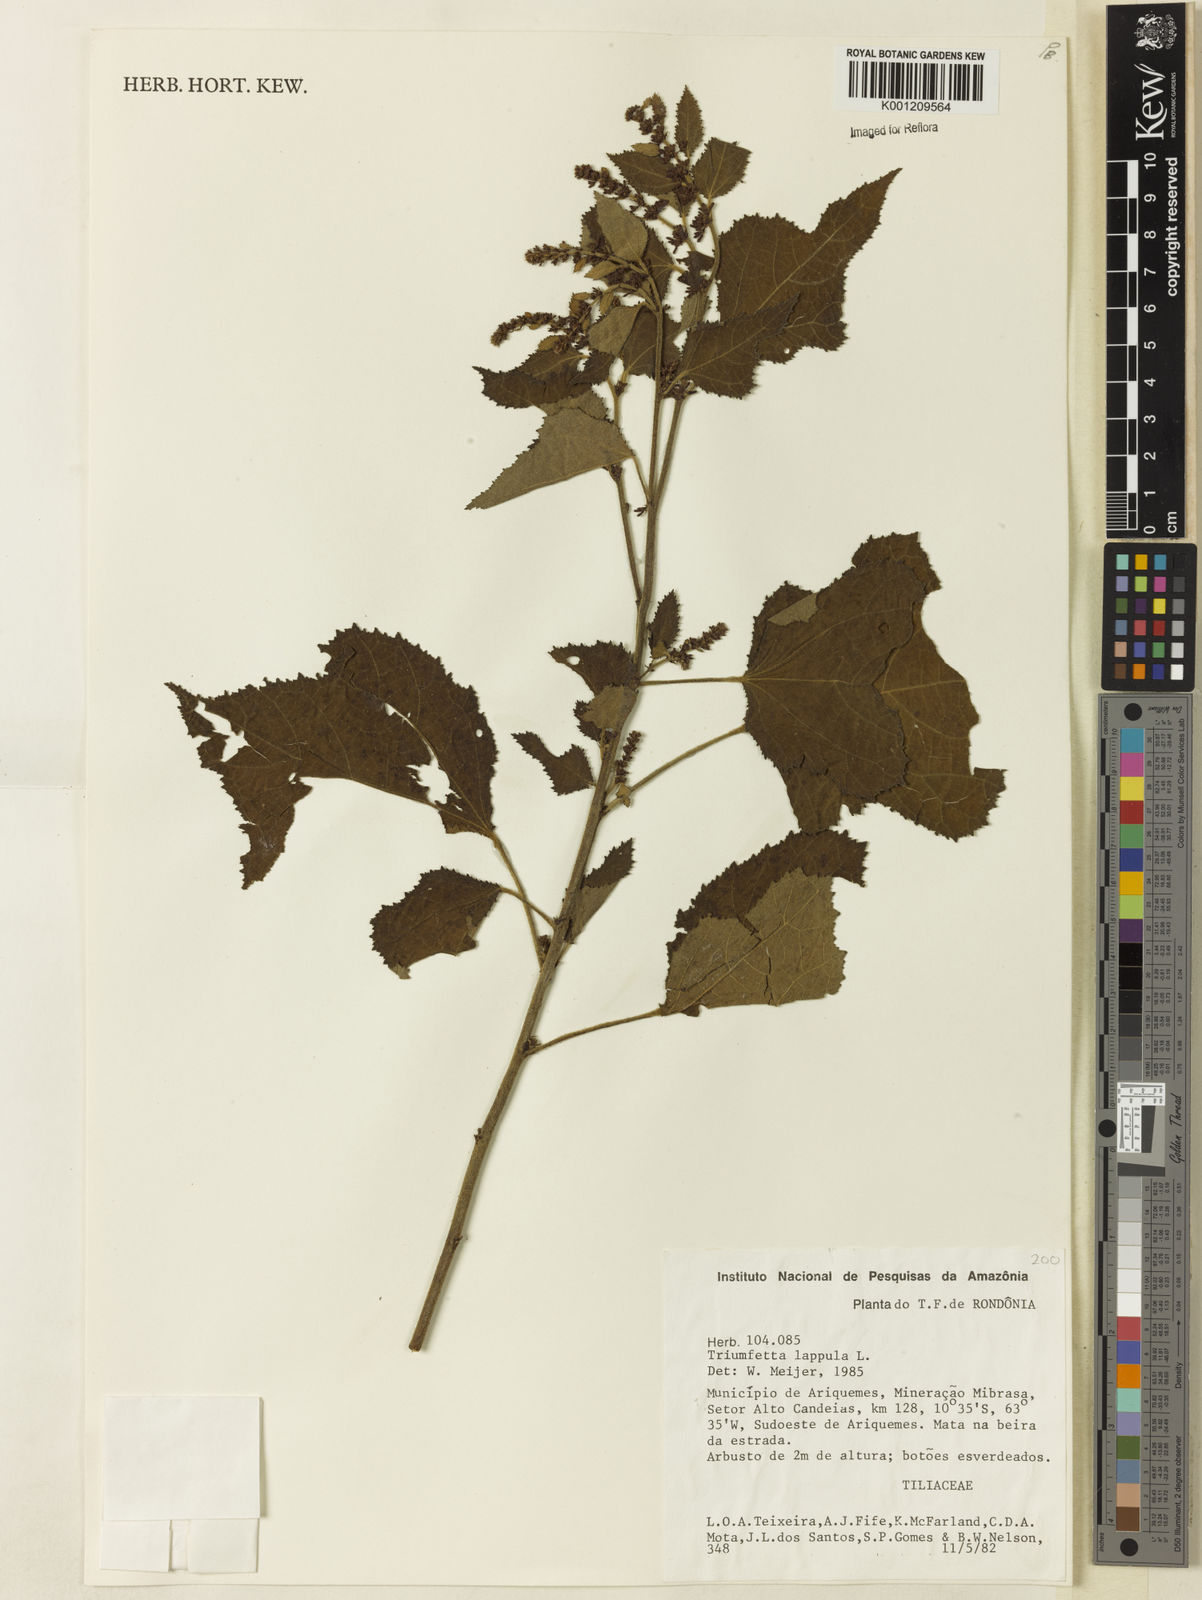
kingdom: Plantae
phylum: Tracheophyta
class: Magnoliopsida
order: Malvales
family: Malvaceae
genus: Triumfetta
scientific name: Triumfetta lappula
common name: Burbark
